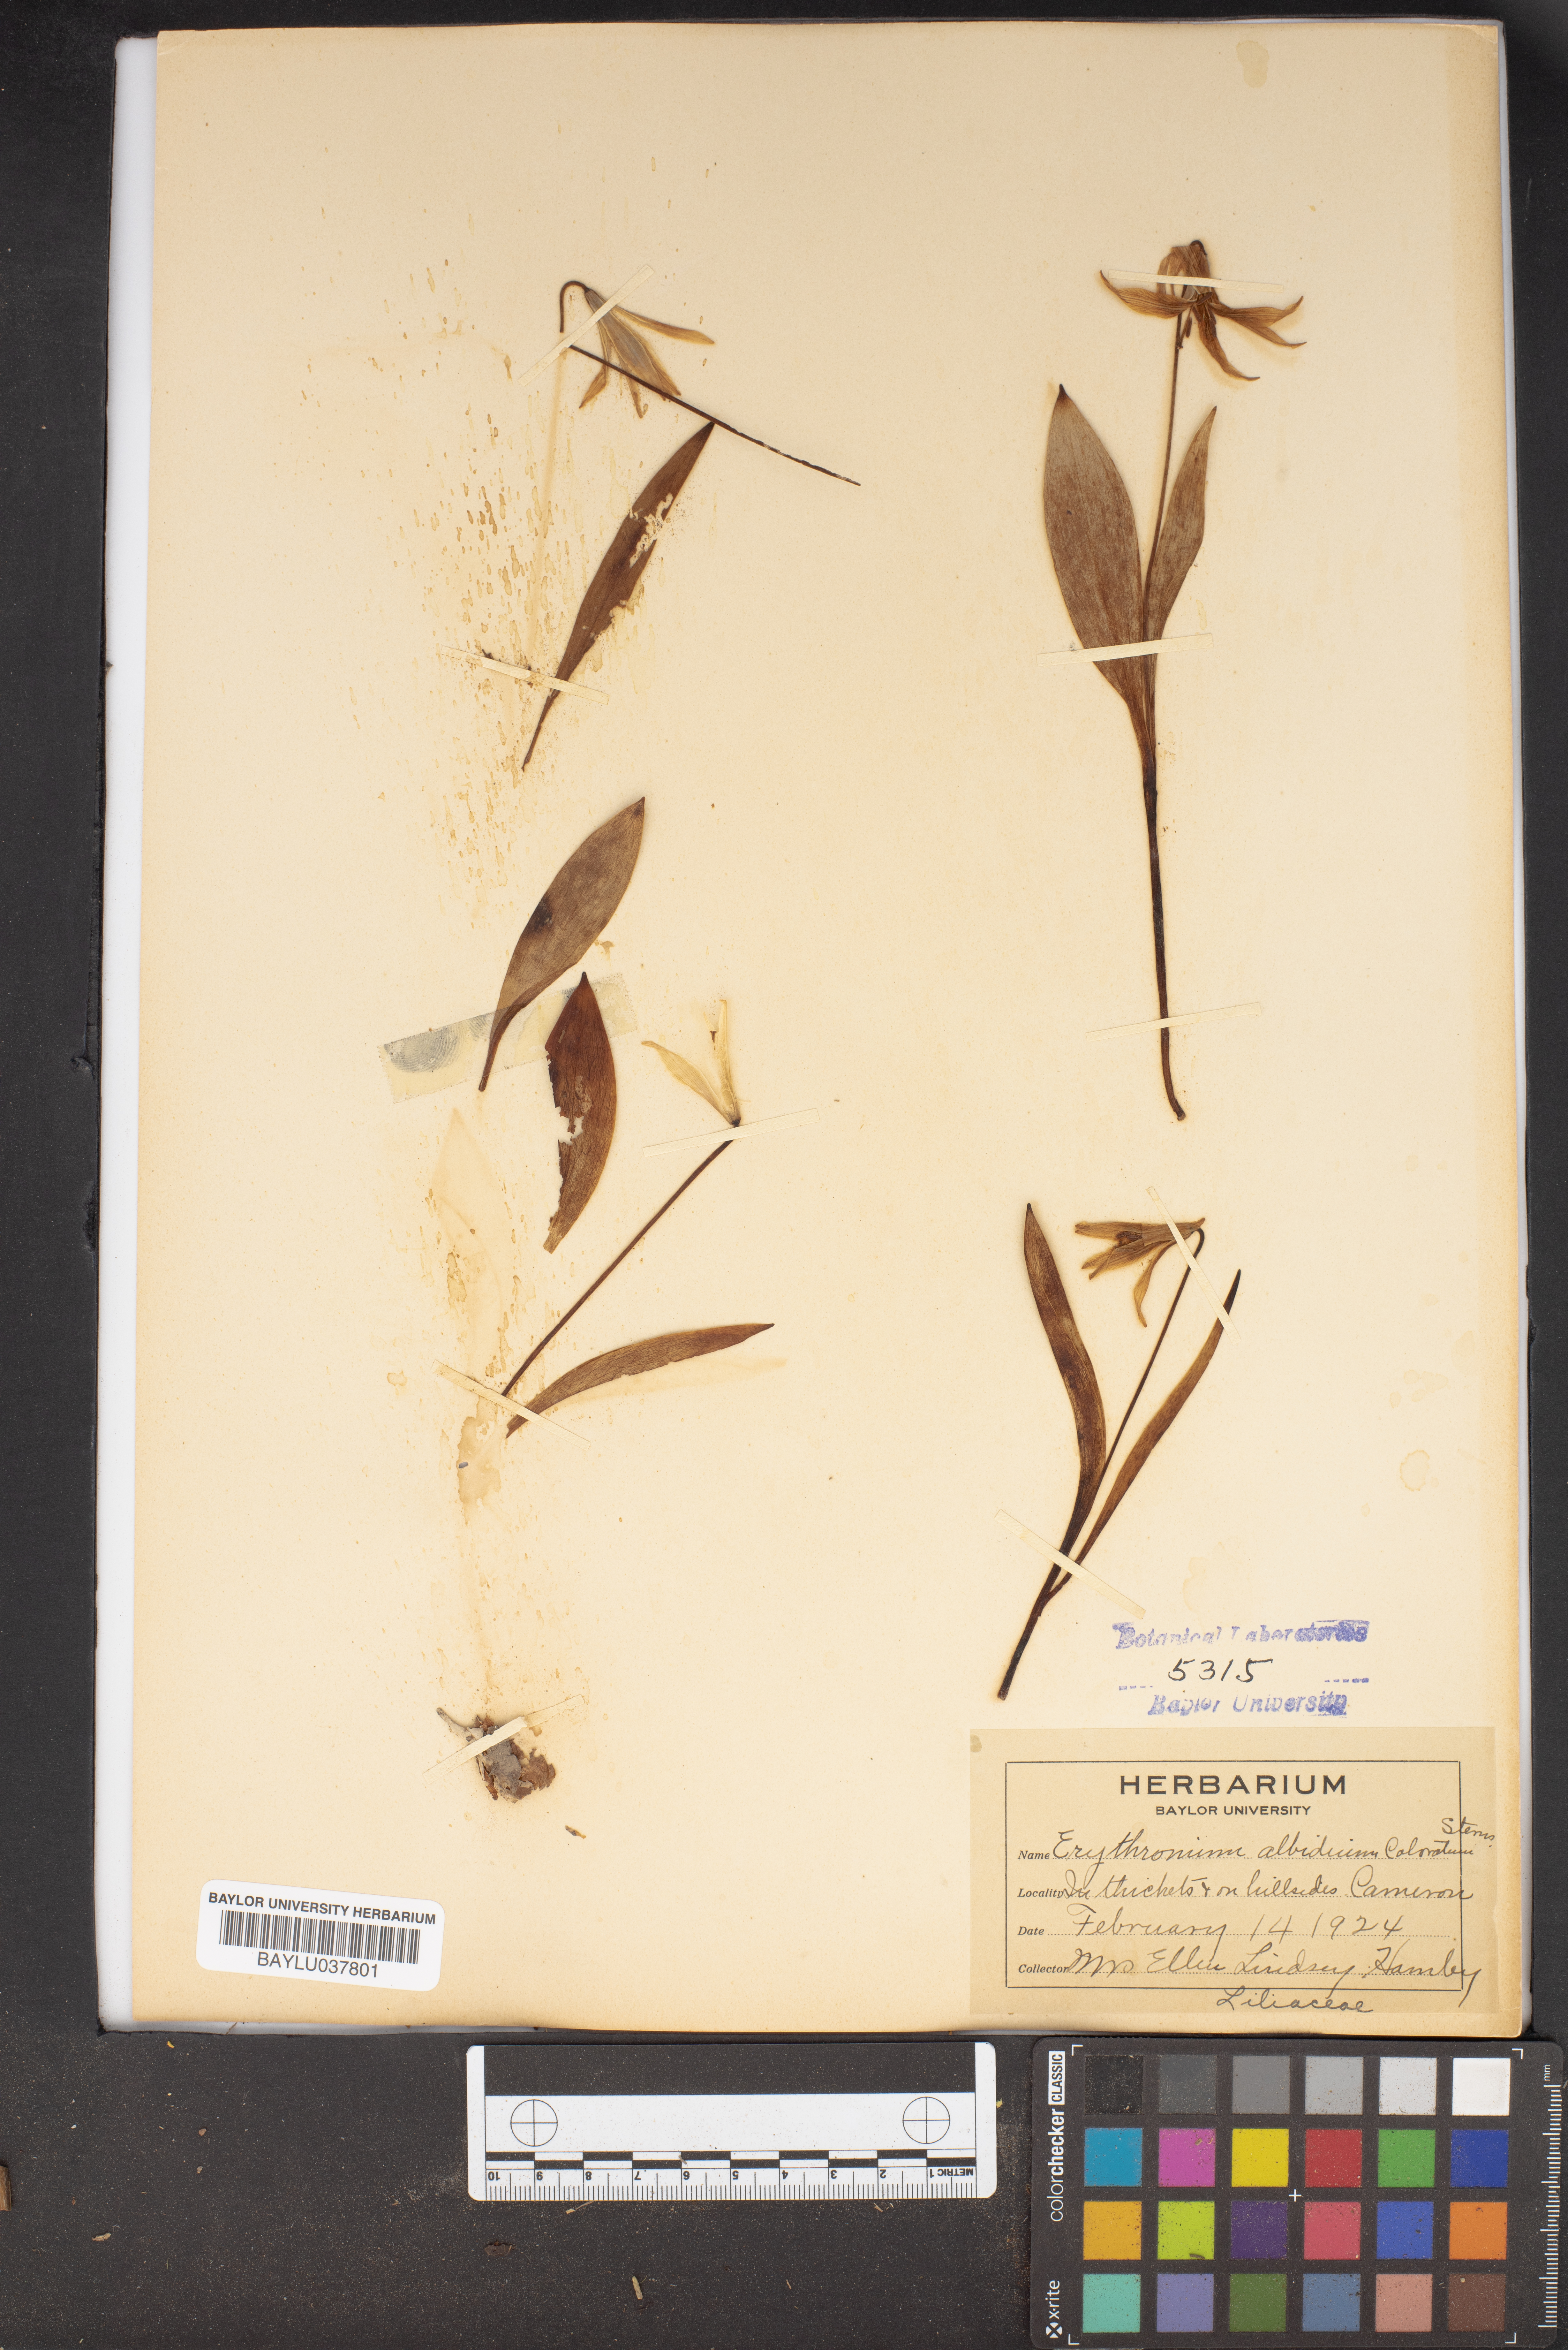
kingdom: Plantae
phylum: Tracheophyta
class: Liliopsida
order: Liliales
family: Liliaceae
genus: Erythronium
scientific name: Erythronium albidum
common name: White trout-lily
